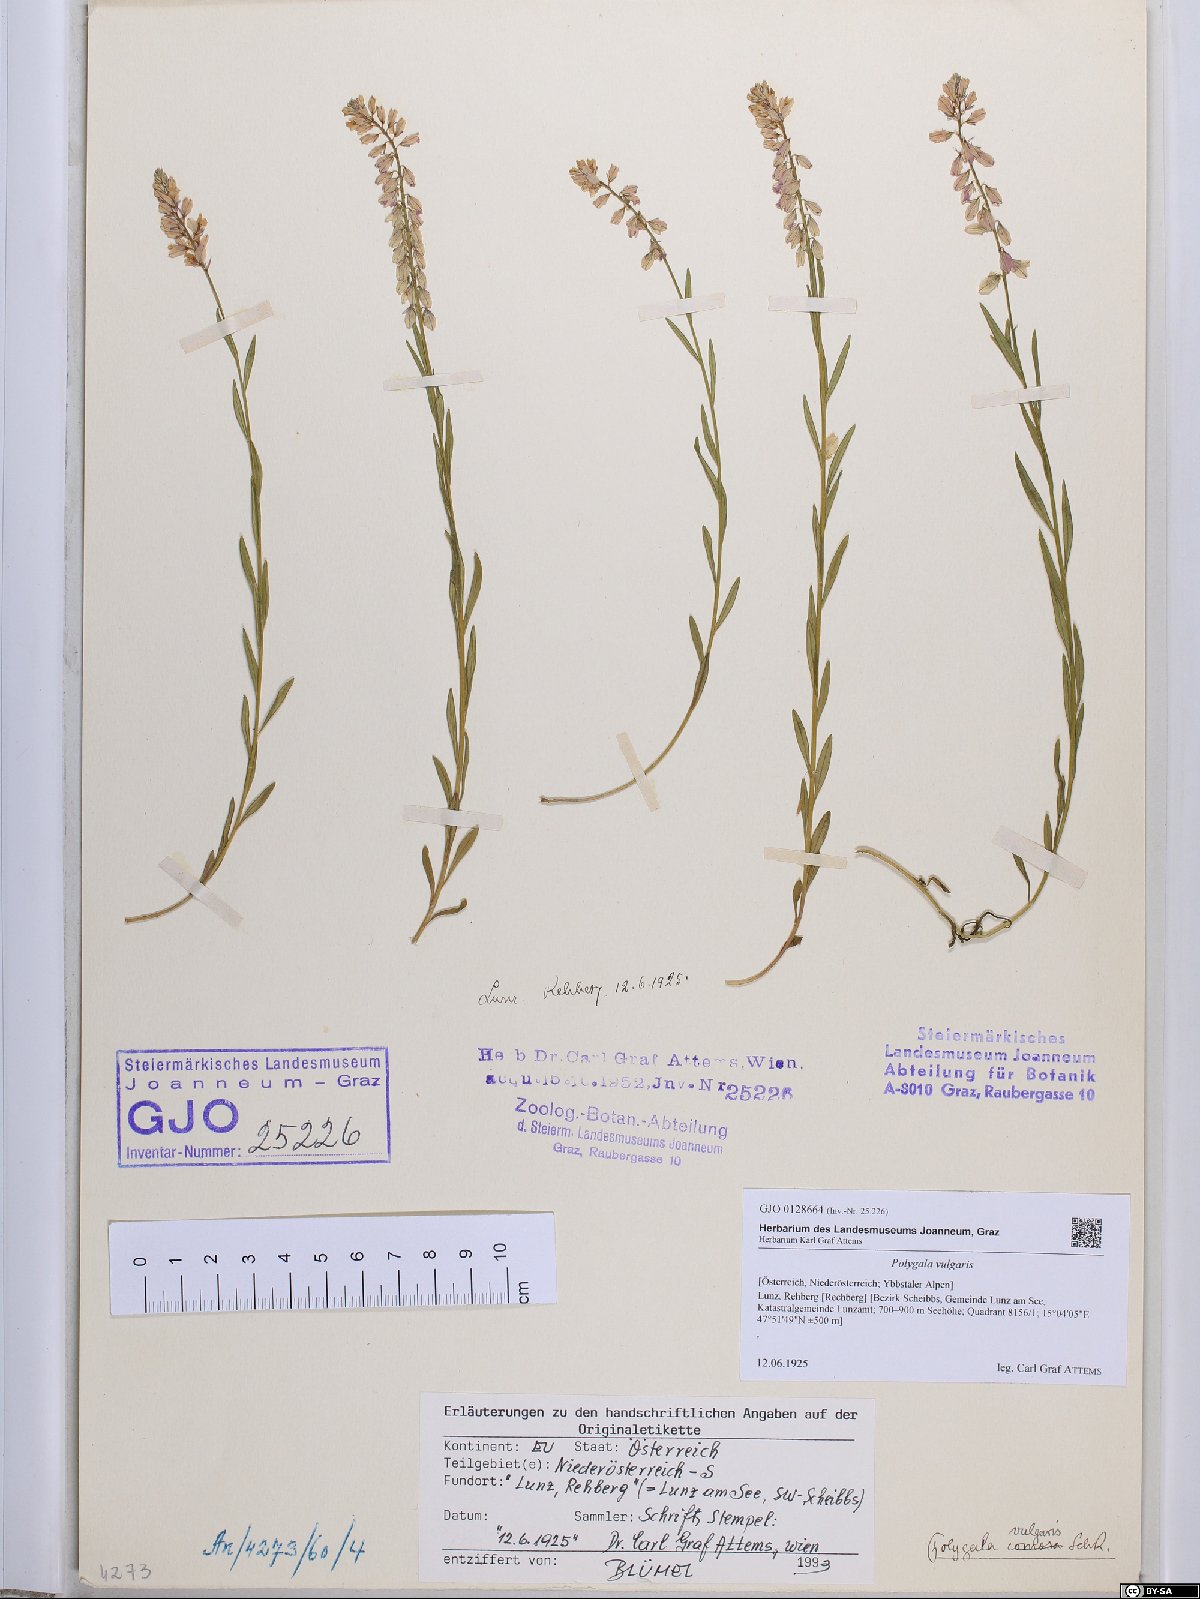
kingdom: Plantae
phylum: Tracheophyta
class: Magnoliopsida
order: Fabales
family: Polygalaceae
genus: Polygala
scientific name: Polygala vulgaris
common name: Common milkwort
